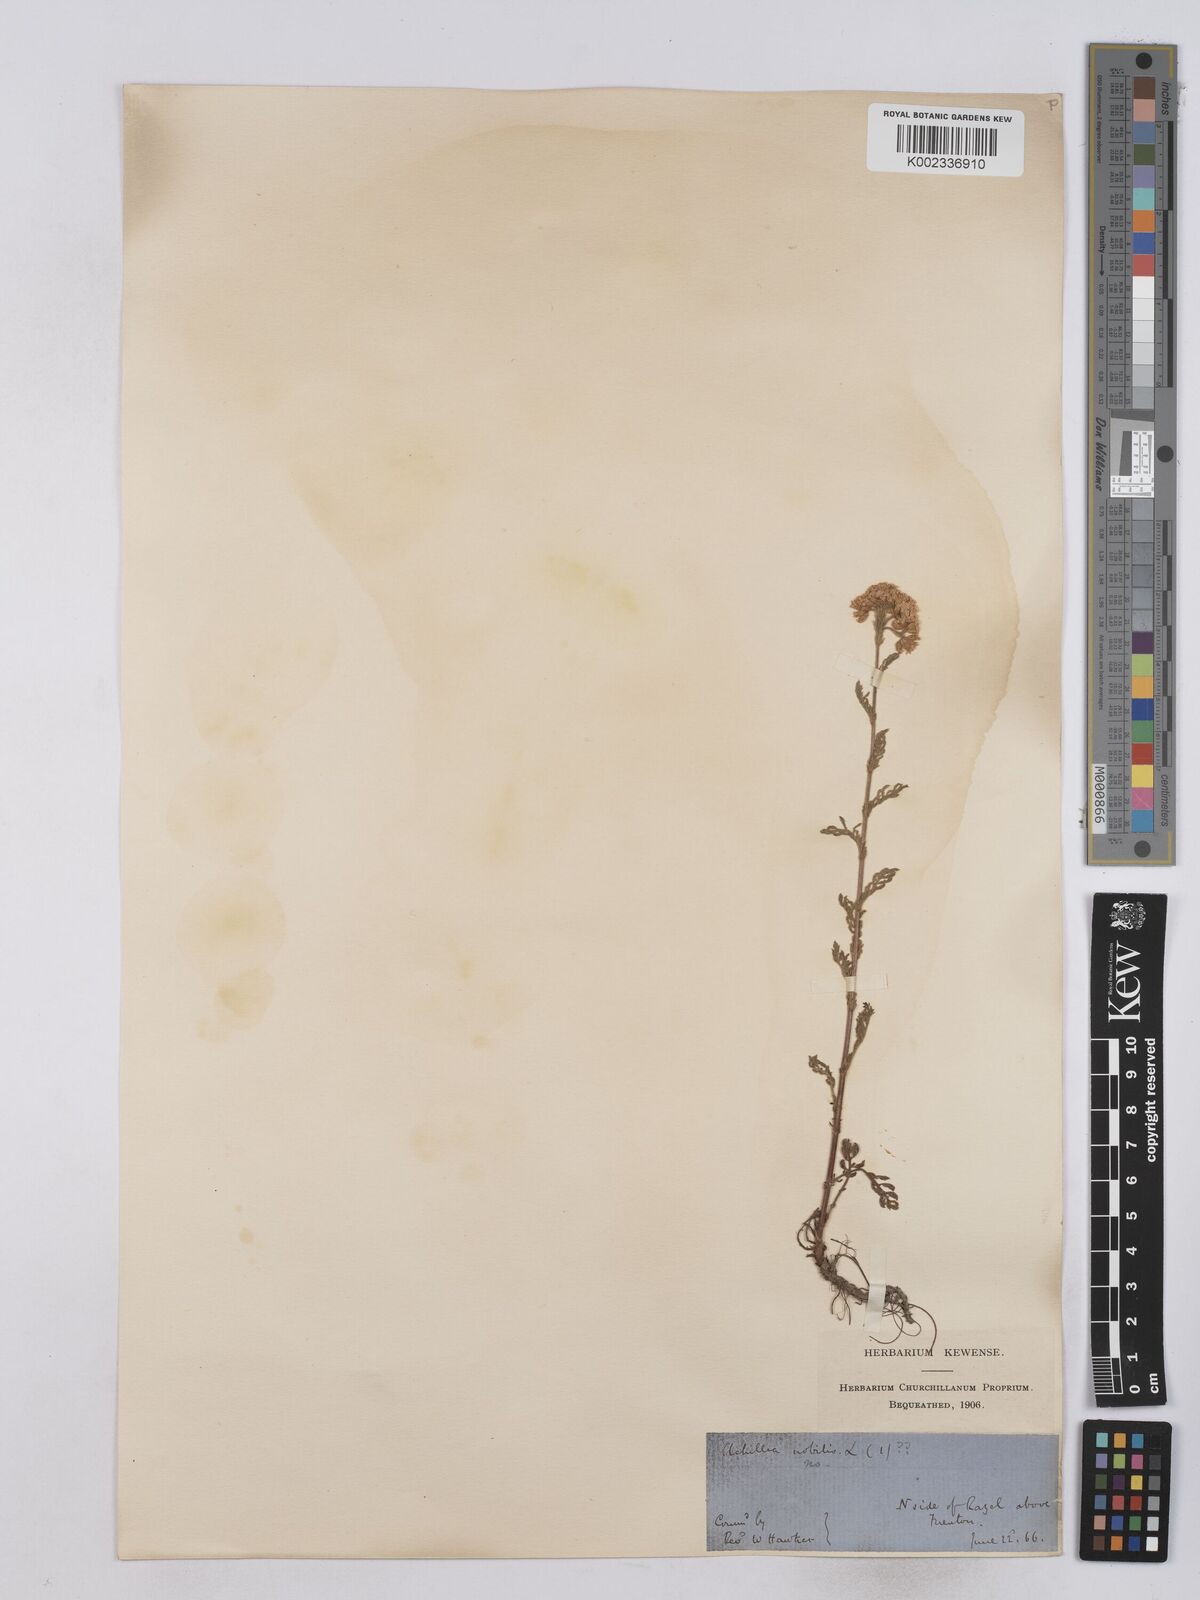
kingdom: Plantae
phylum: Tracheophyta
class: Magnoliopsida
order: Asterales
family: Asteraceae
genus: Achillea
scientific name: Achillea odorata
